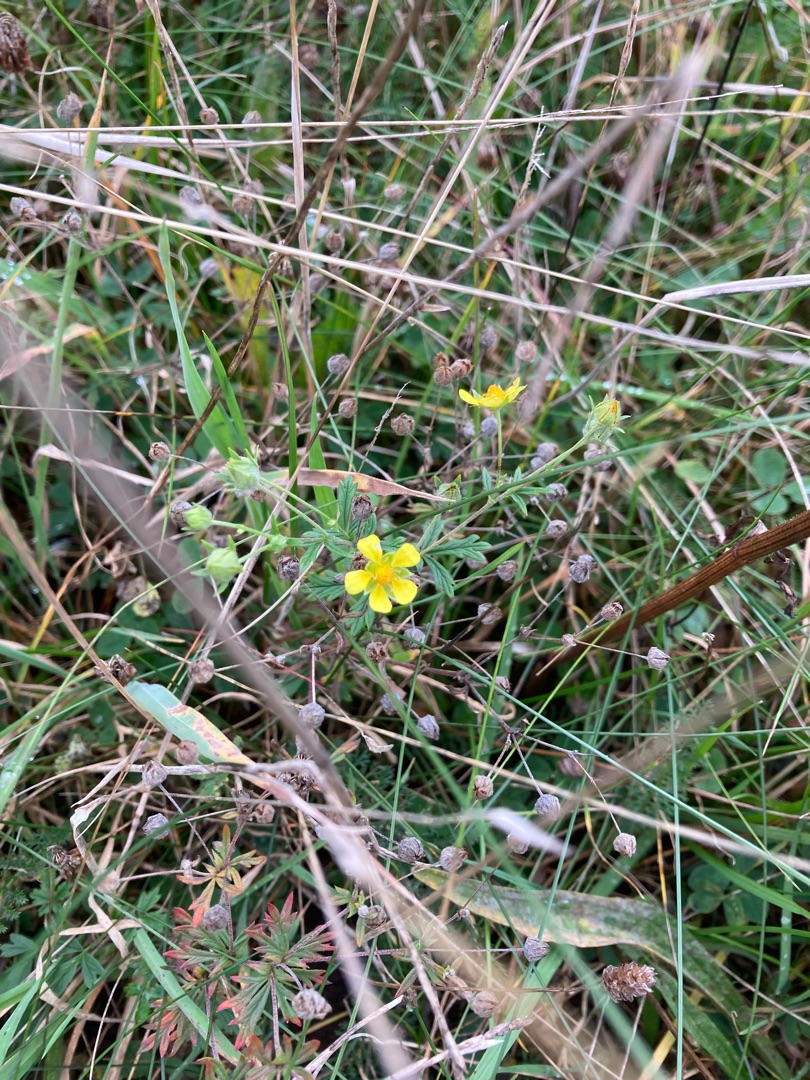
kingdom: Plantae
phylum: Tracheophyta
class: Magnoliopsida
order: Rosales
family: Rosaceae
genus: Potentilla
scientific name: Potentilla argentea
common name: Sølv-potentil
